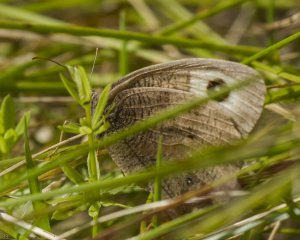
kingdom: Animalia
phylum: Arthropoda
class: Insecta
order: Lepidoptera
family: Nymphalidae
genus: Cercyonis
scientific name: Cercyonis pegala
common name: Common Wood-Nymph
